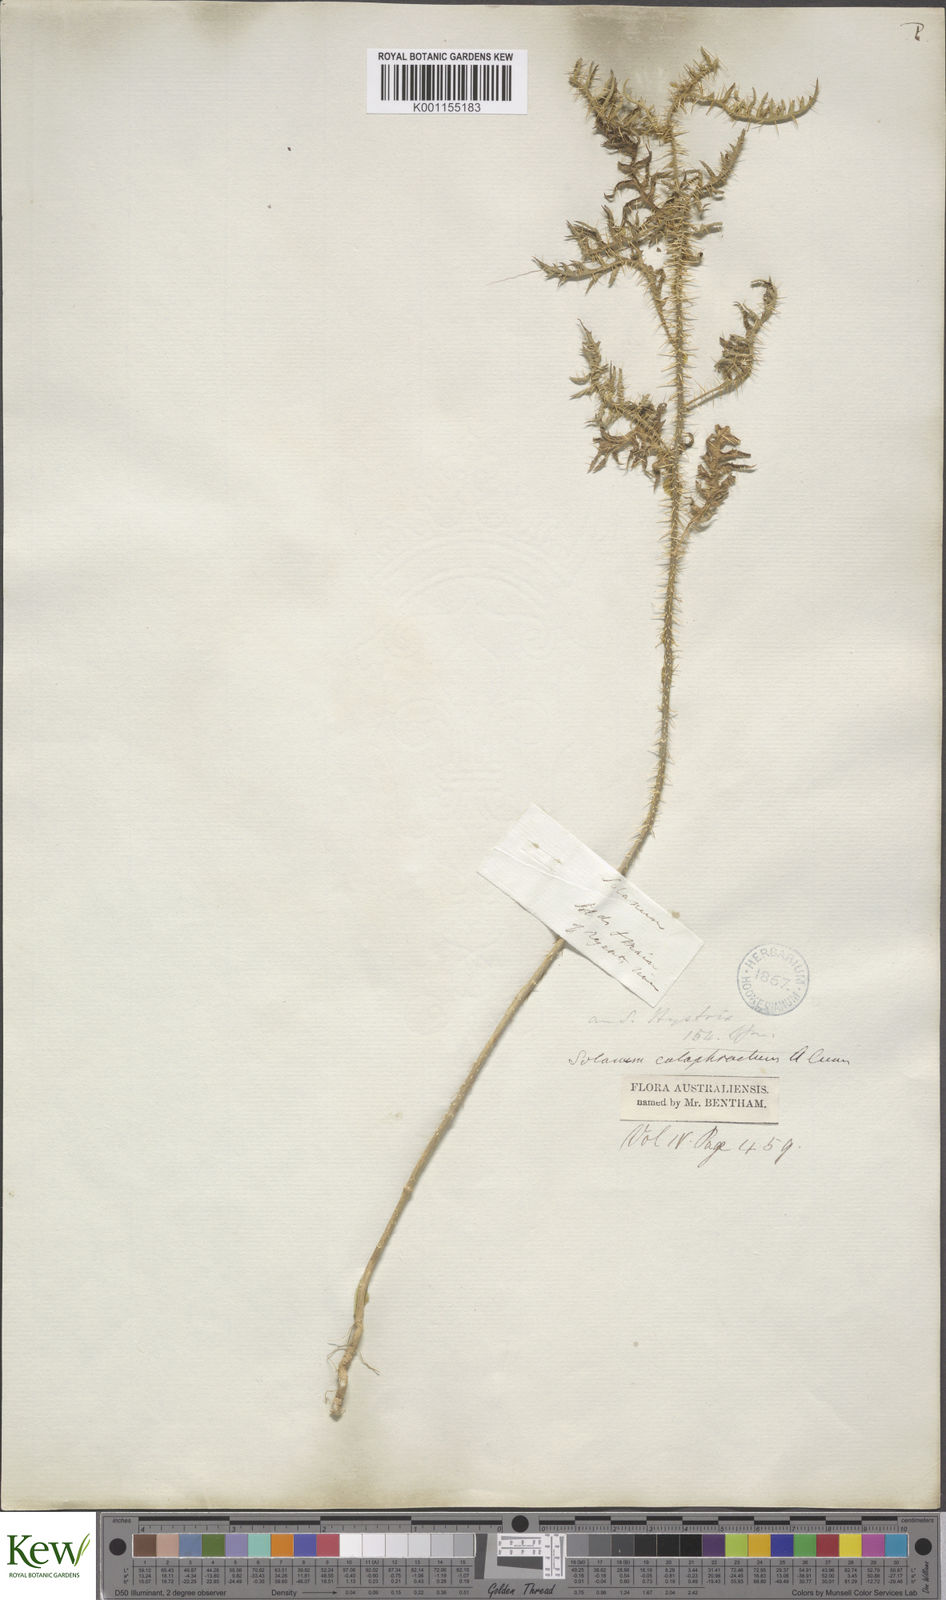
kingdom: Plantae
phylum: Tracheophyta
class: Magnoliopsida
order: Solanales
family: Solanaceae
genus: Solanum
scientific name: Solanum cataphractum
